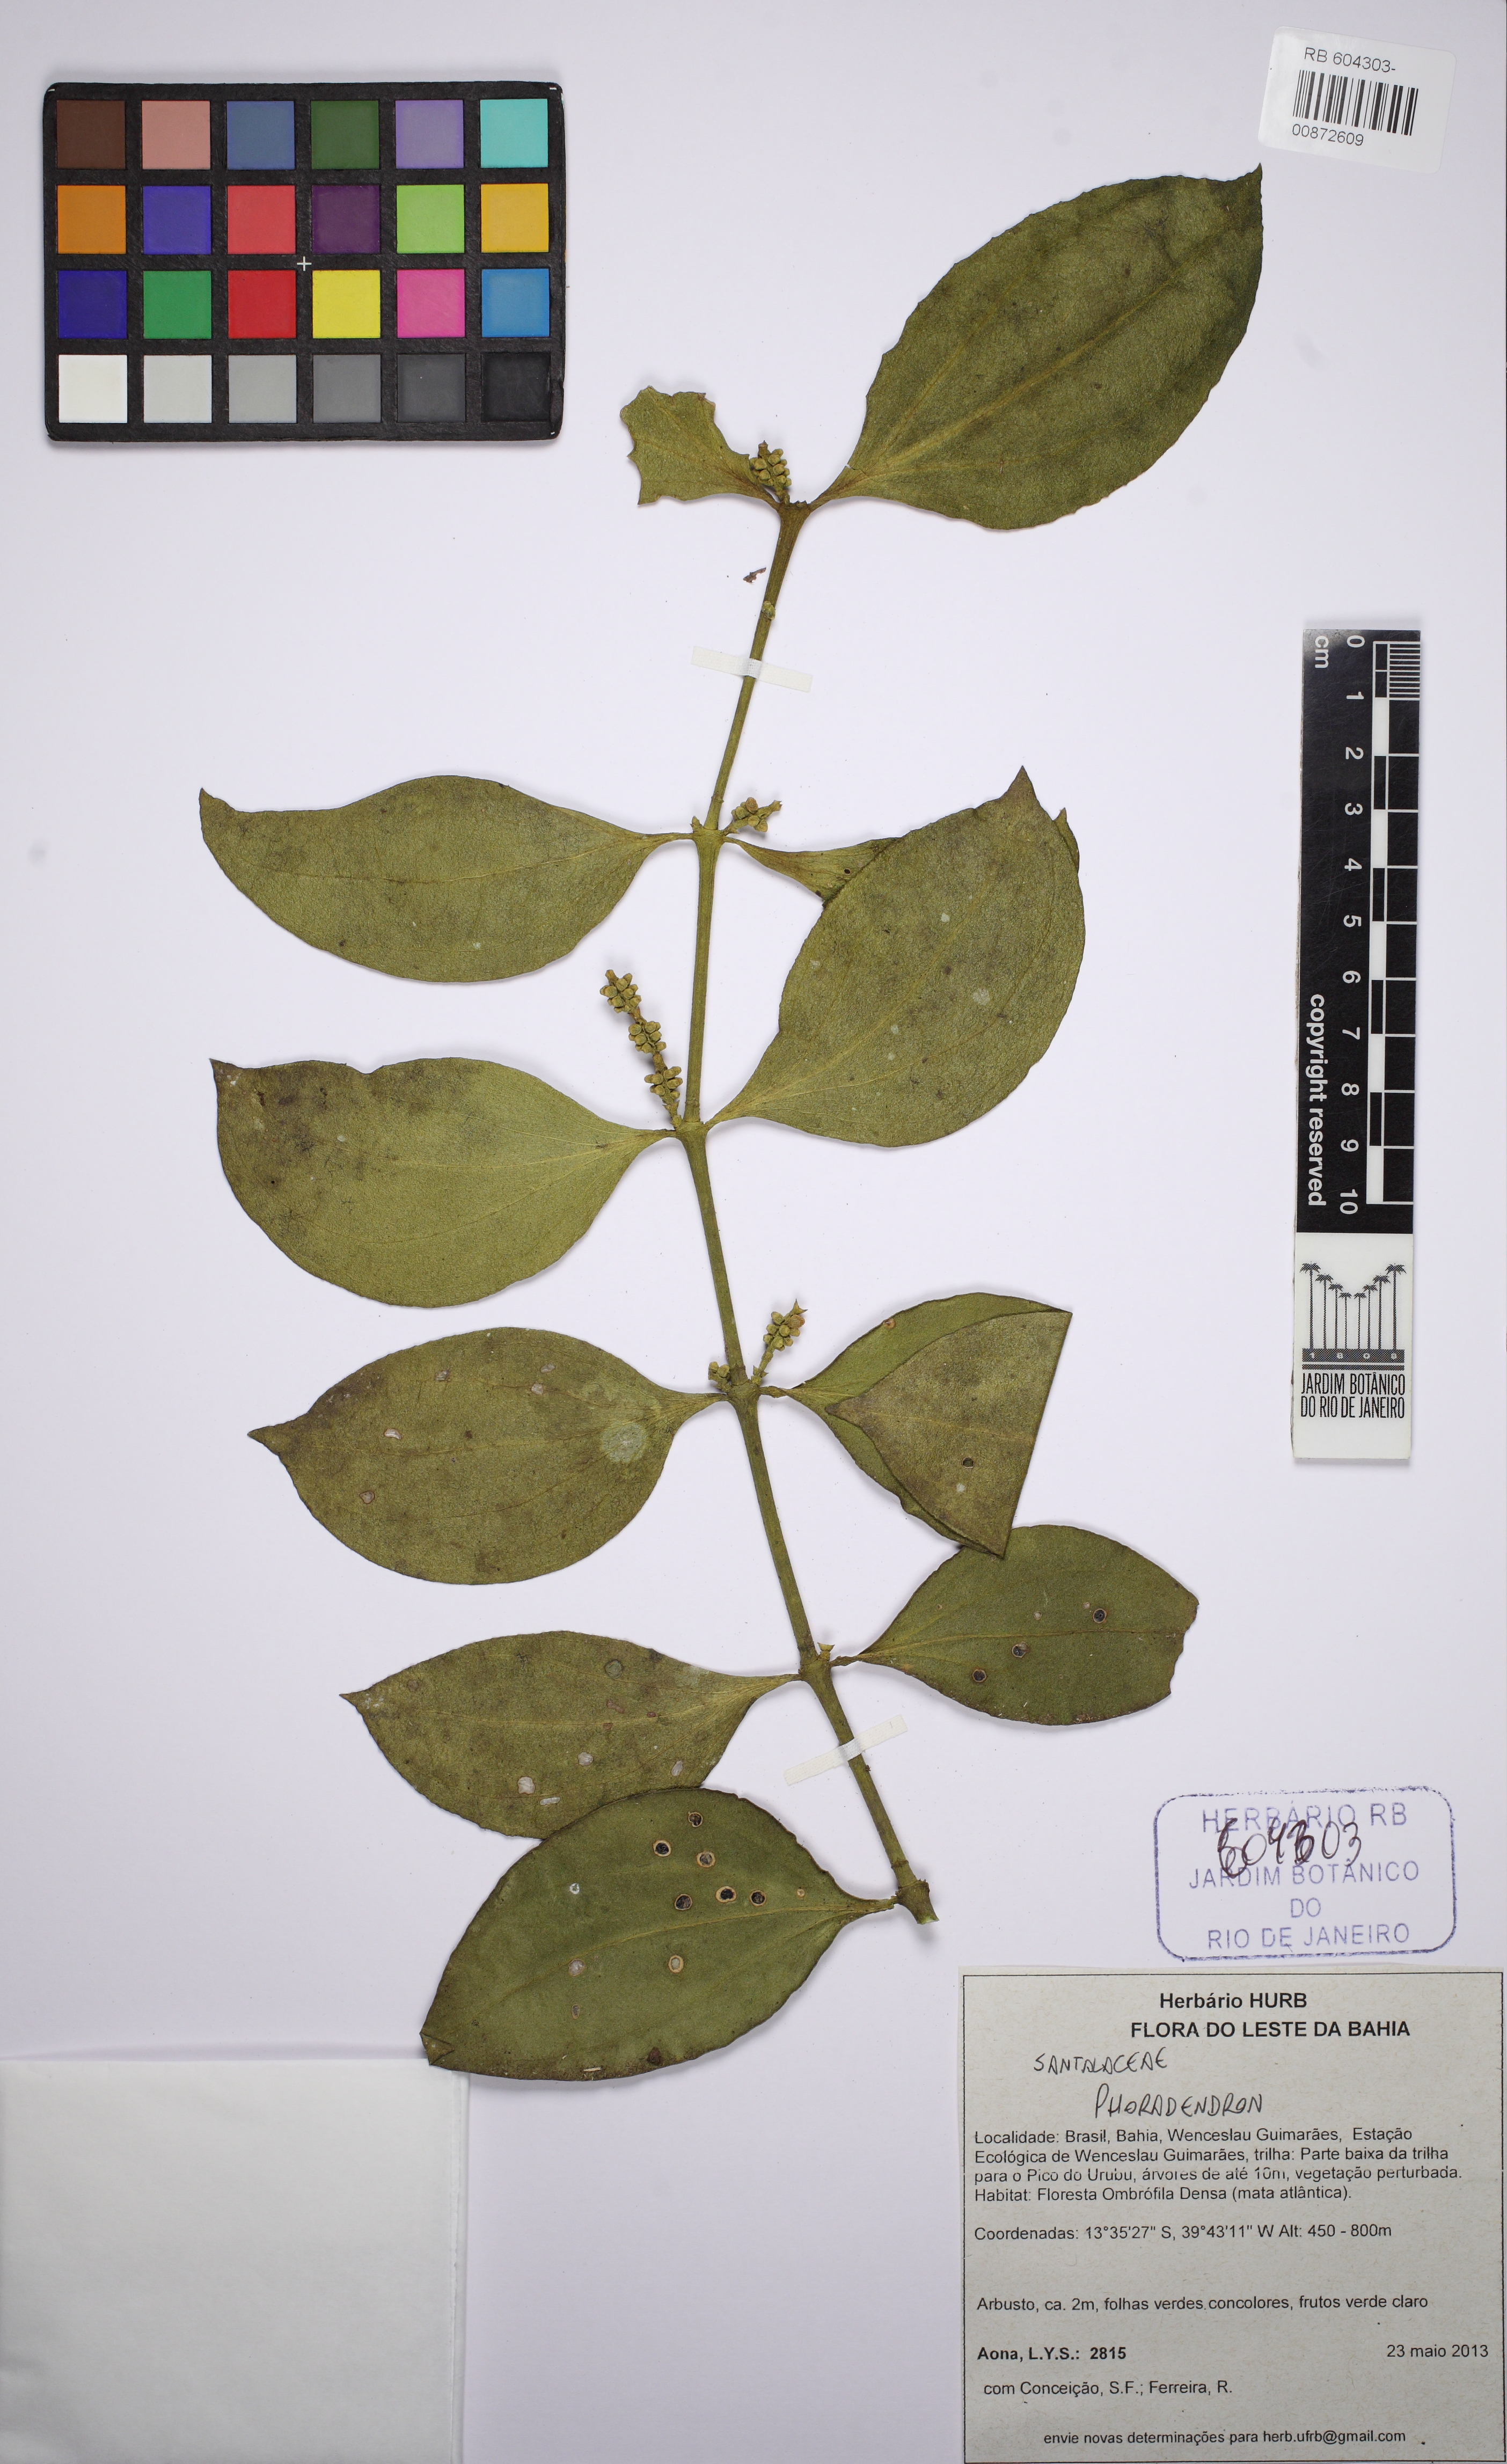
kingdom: Plantae
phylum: Tracheophyta
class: Magnoliopsida
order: Santalales
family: Viscaceae
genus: Phoradendron
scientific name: Phoradendron chrysocladon
